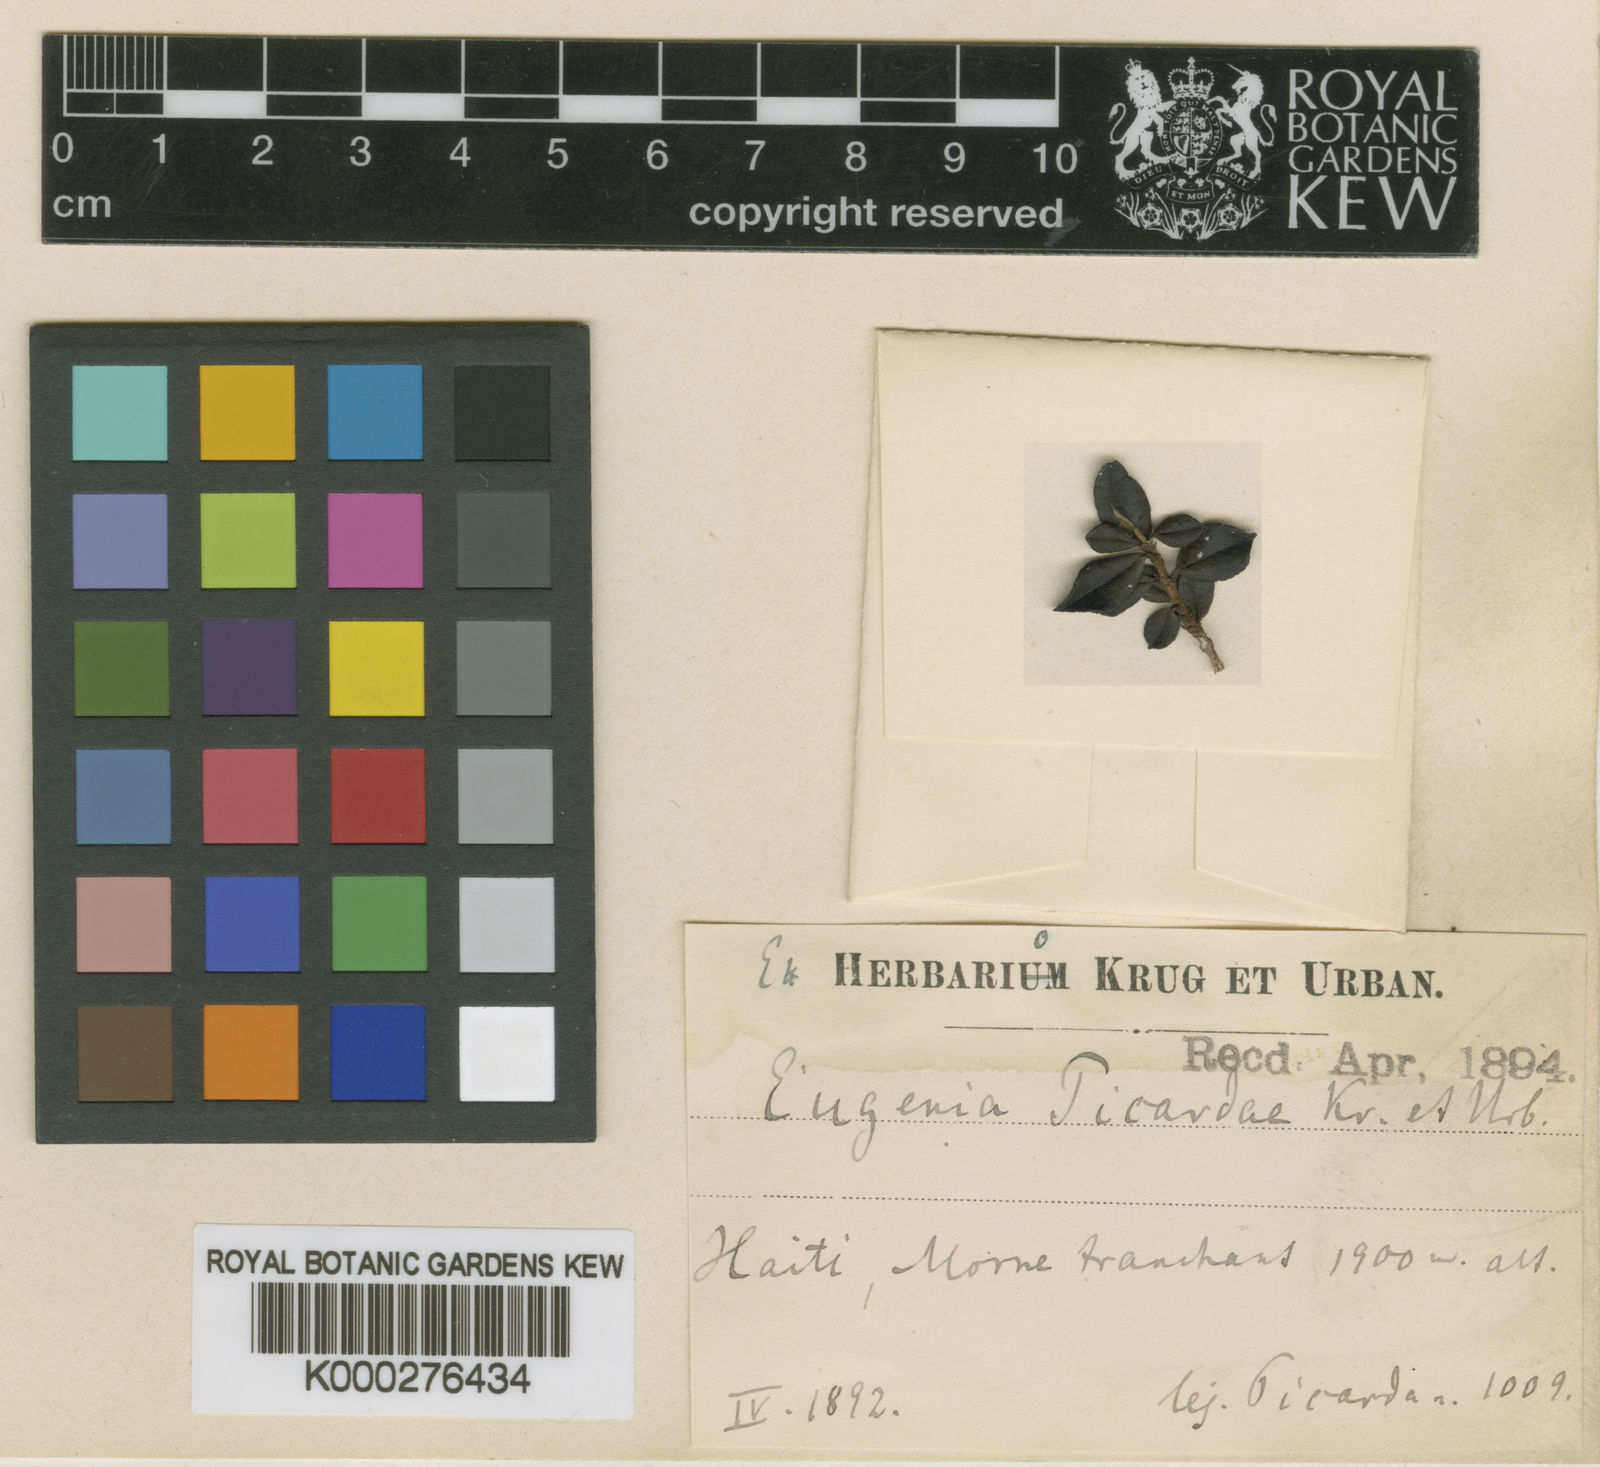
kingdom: Plantae
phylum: Tracheophyta
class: Magnoliopsida
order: Myrtales
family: Myrtaceae
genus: Eugenia
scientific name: Eugenia picardiae
